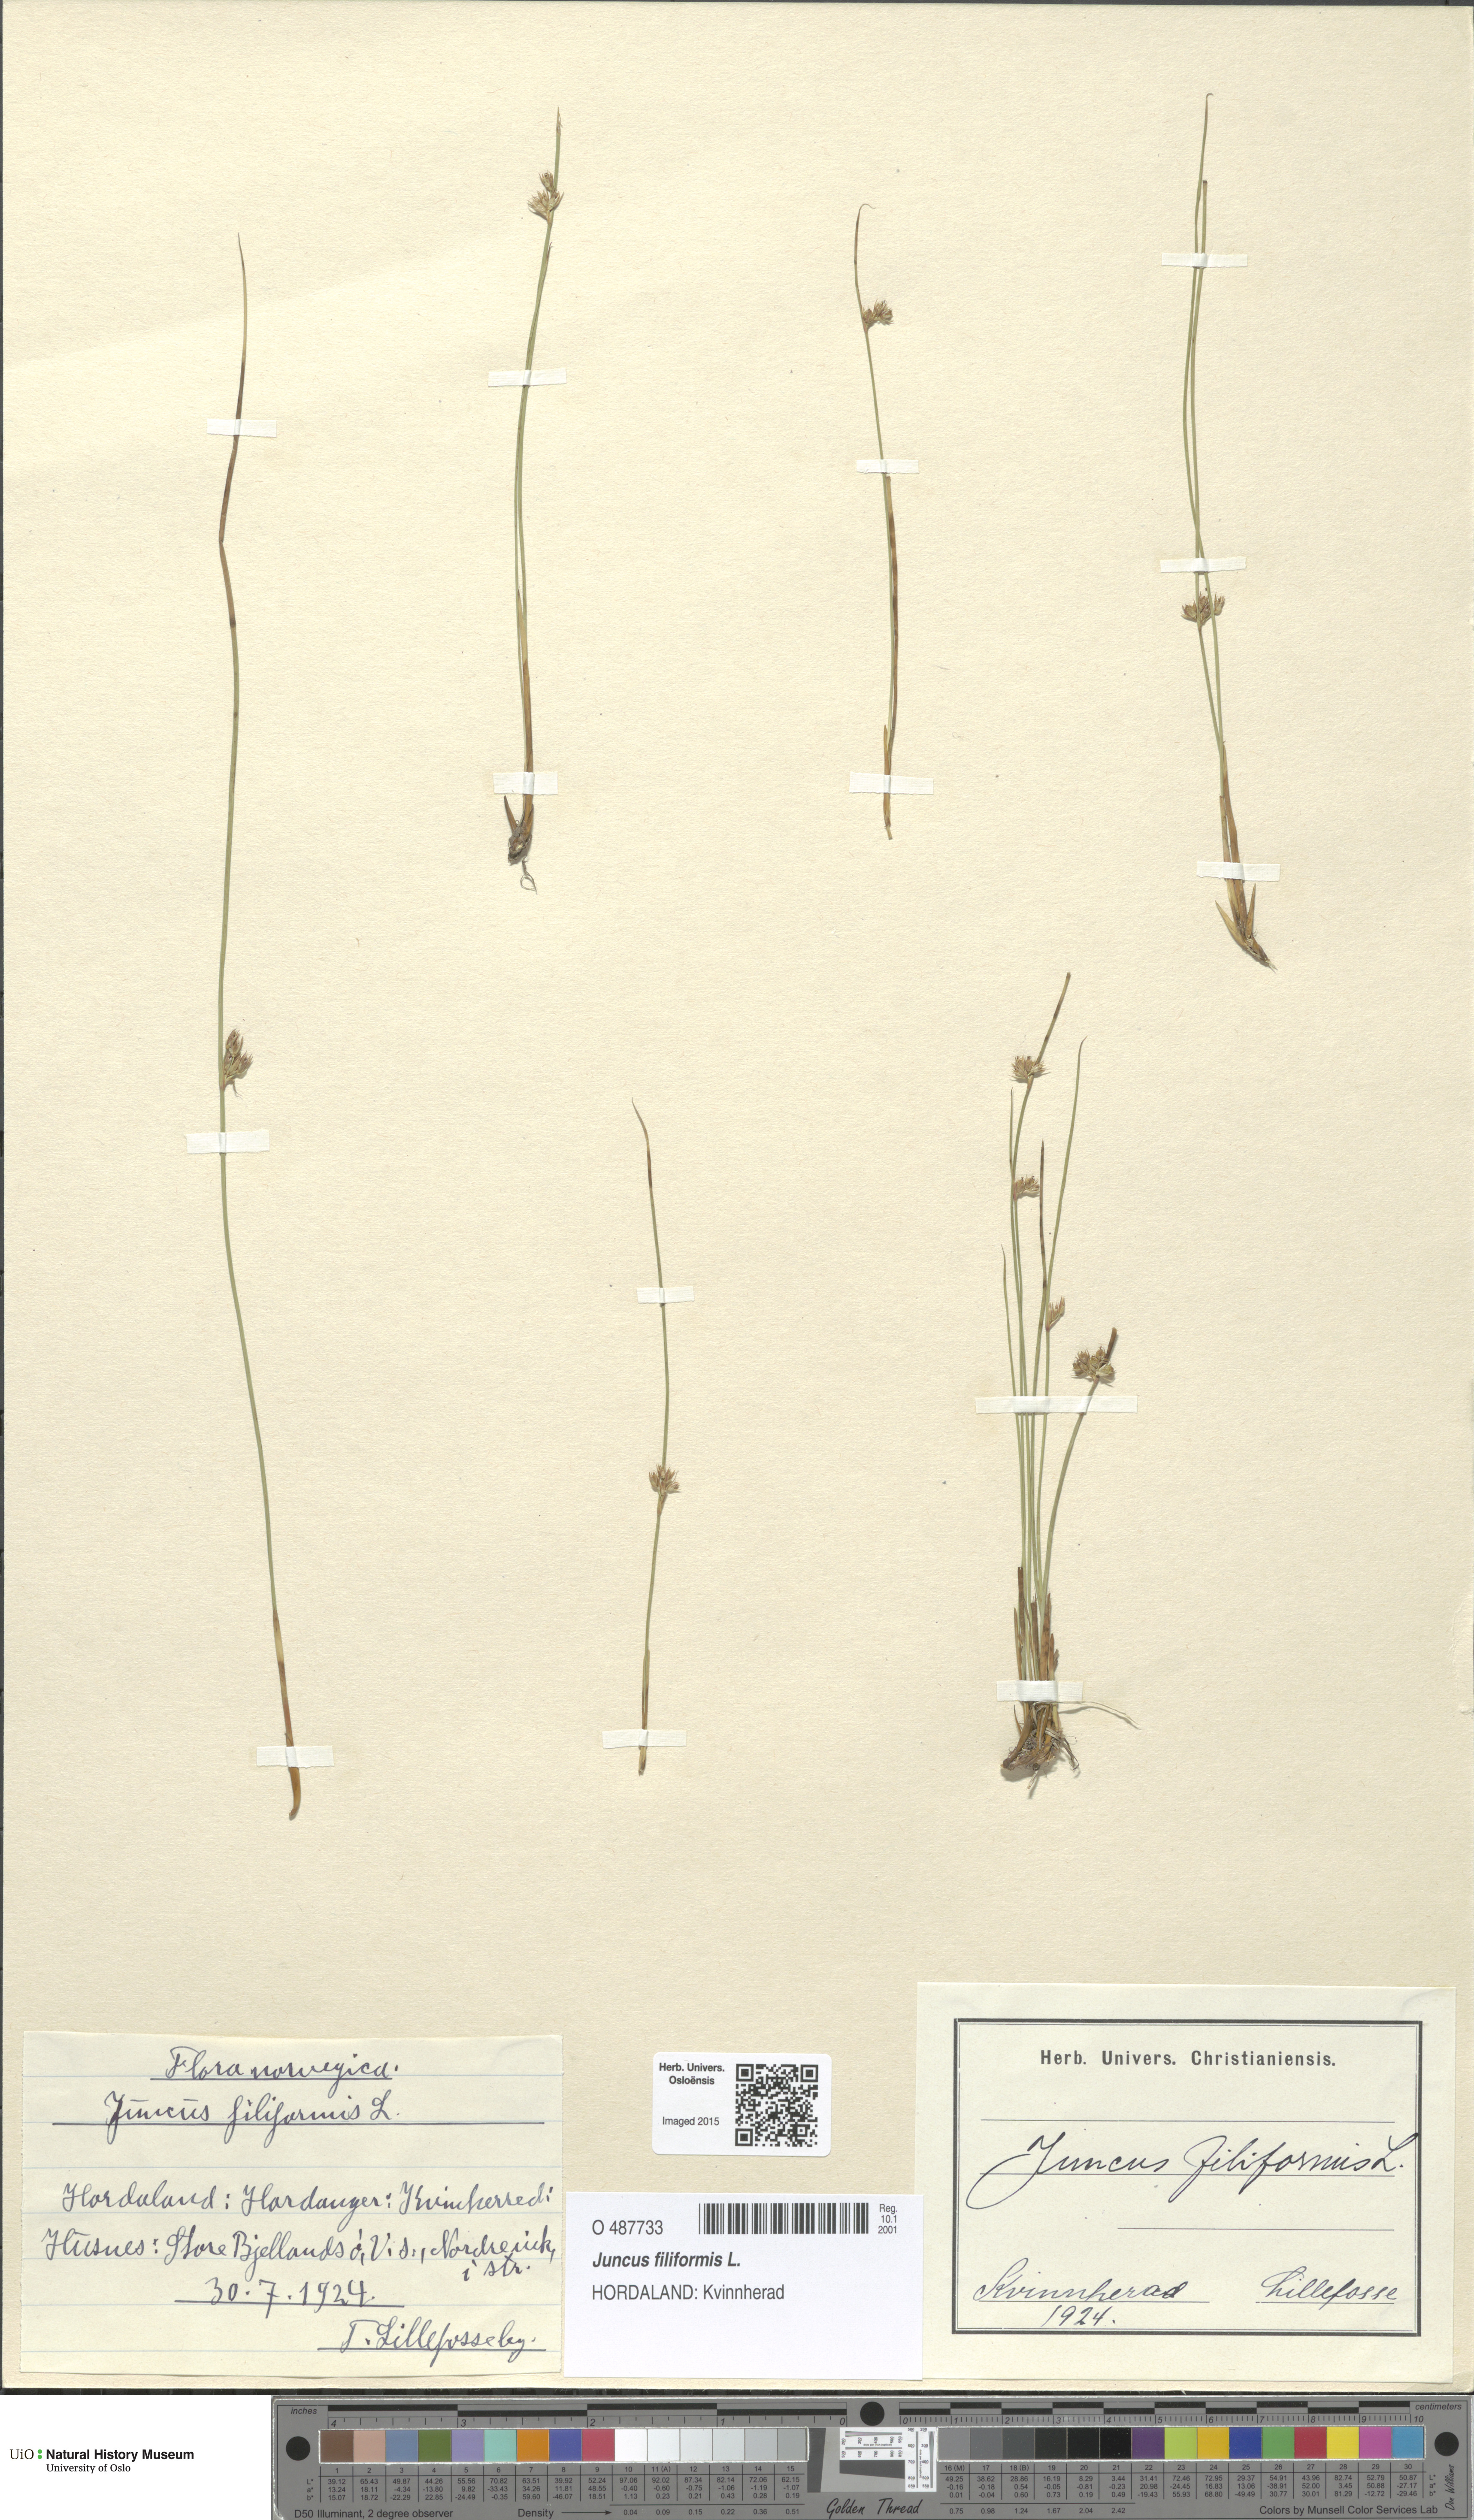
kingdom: Plantae
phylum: Tracheophyta
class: Liliopsida
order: Poales
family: Juncaceae
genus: Juncus
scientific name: Juncus filiformis
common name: Thread rush
